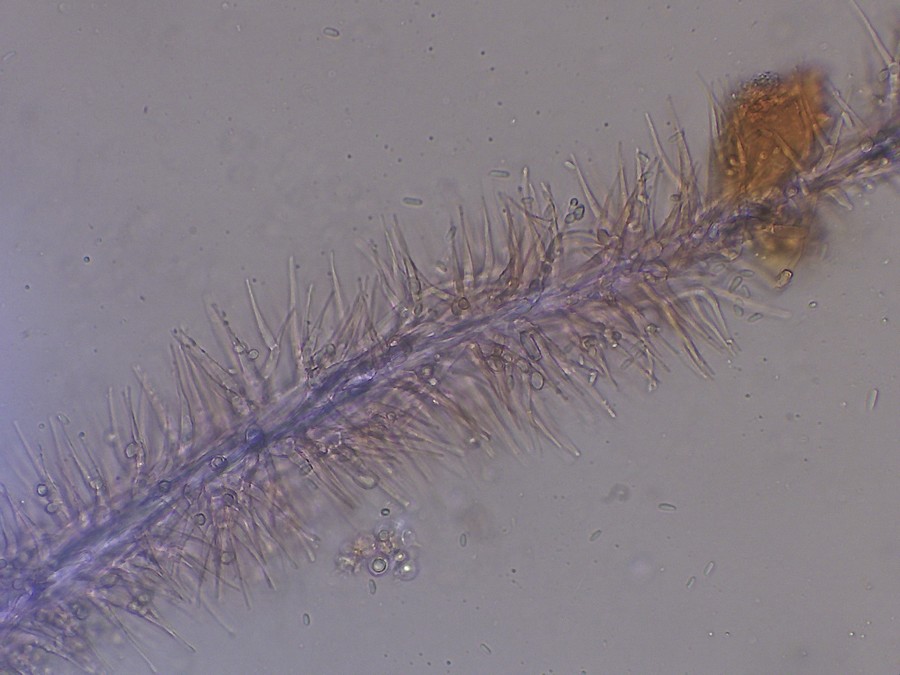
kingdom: Fungi
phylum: Ascomycota
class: Sordariomycetes
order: Hypocreales
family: Tilachlidiaceae
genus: Tilachlidium
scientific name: Tilachlidium brachiatum
